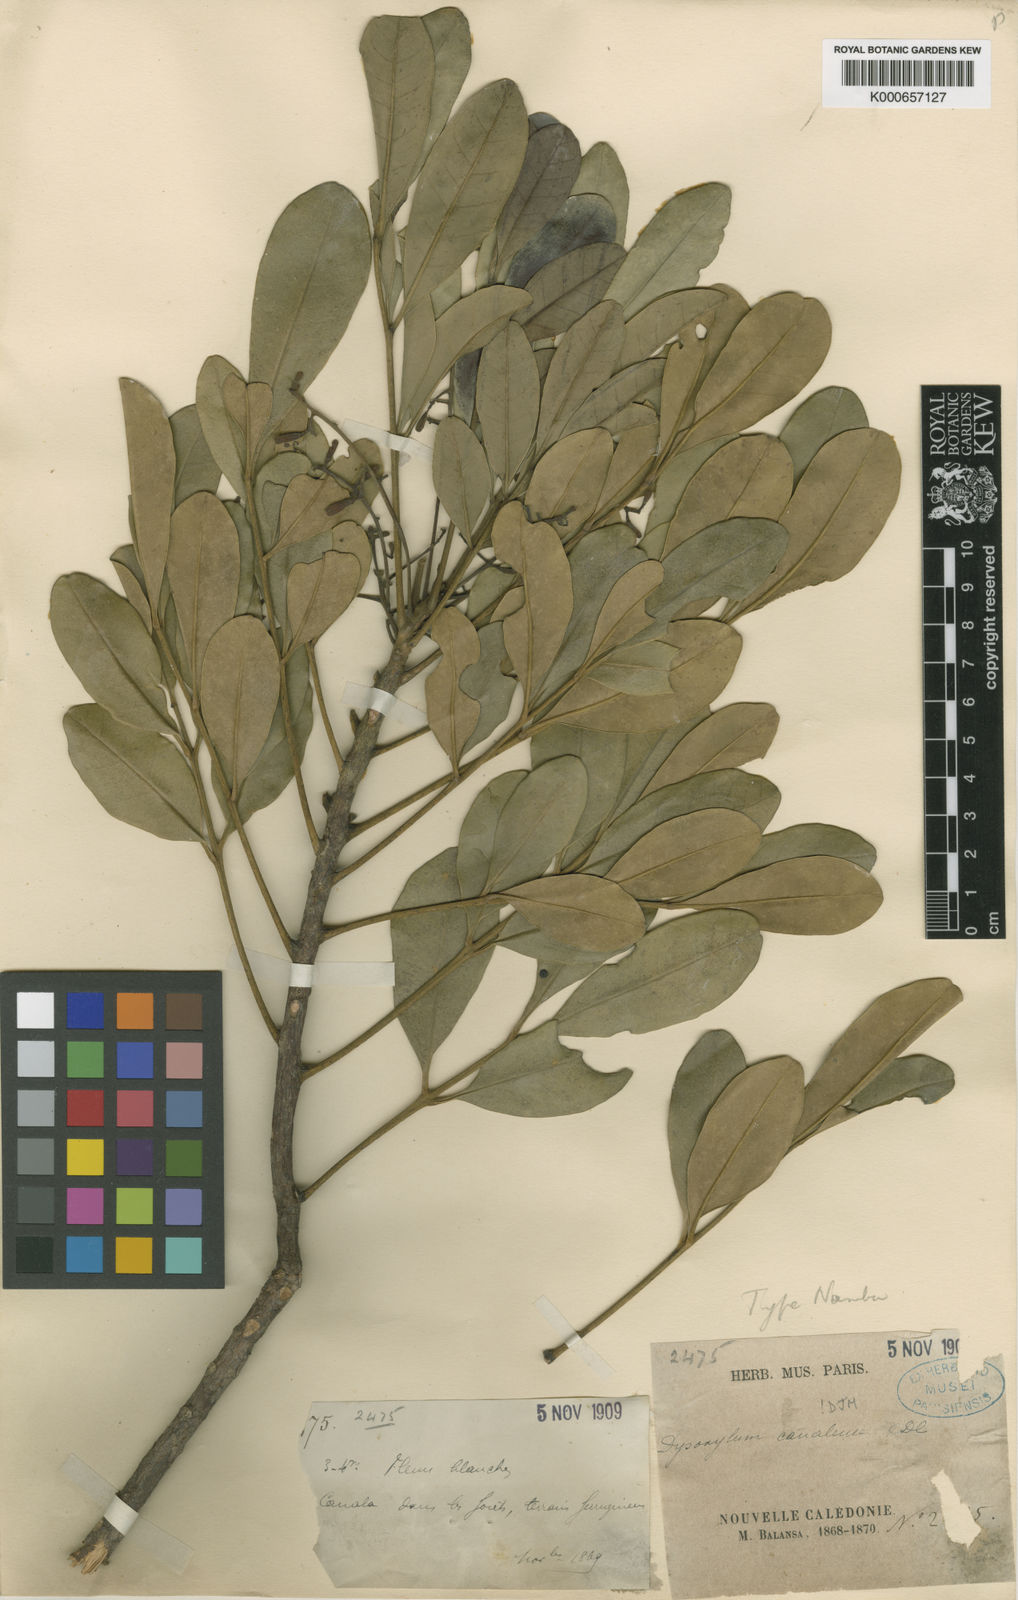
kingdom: Plantae
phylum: Tracheophyta
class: Magnoliopsida
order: Sapindales
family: Meliaceae
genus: Didymocheton
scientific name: Didymocheton canalensis
